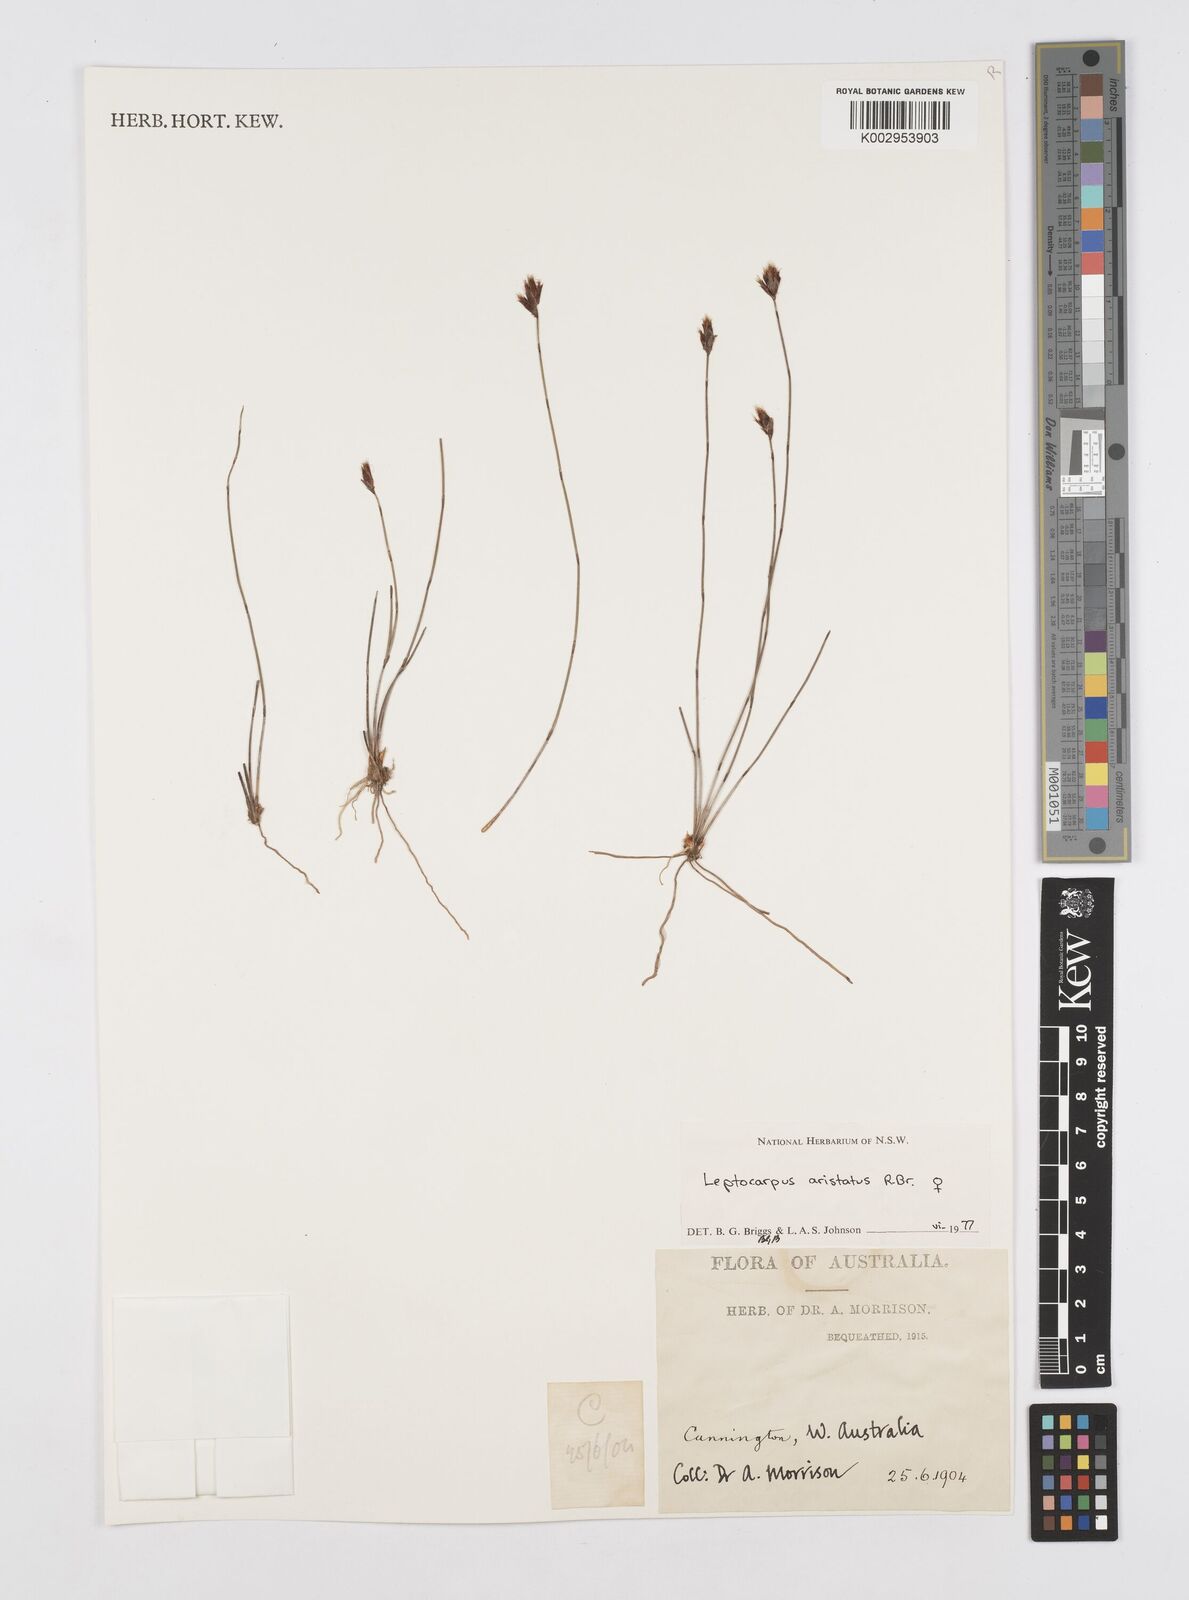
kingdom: Plantae
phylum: Tracheophyta
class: Liliopsida
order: Poales
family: Restionaceae
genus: Chaetanthus
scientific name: Chaetanthus aristatus
